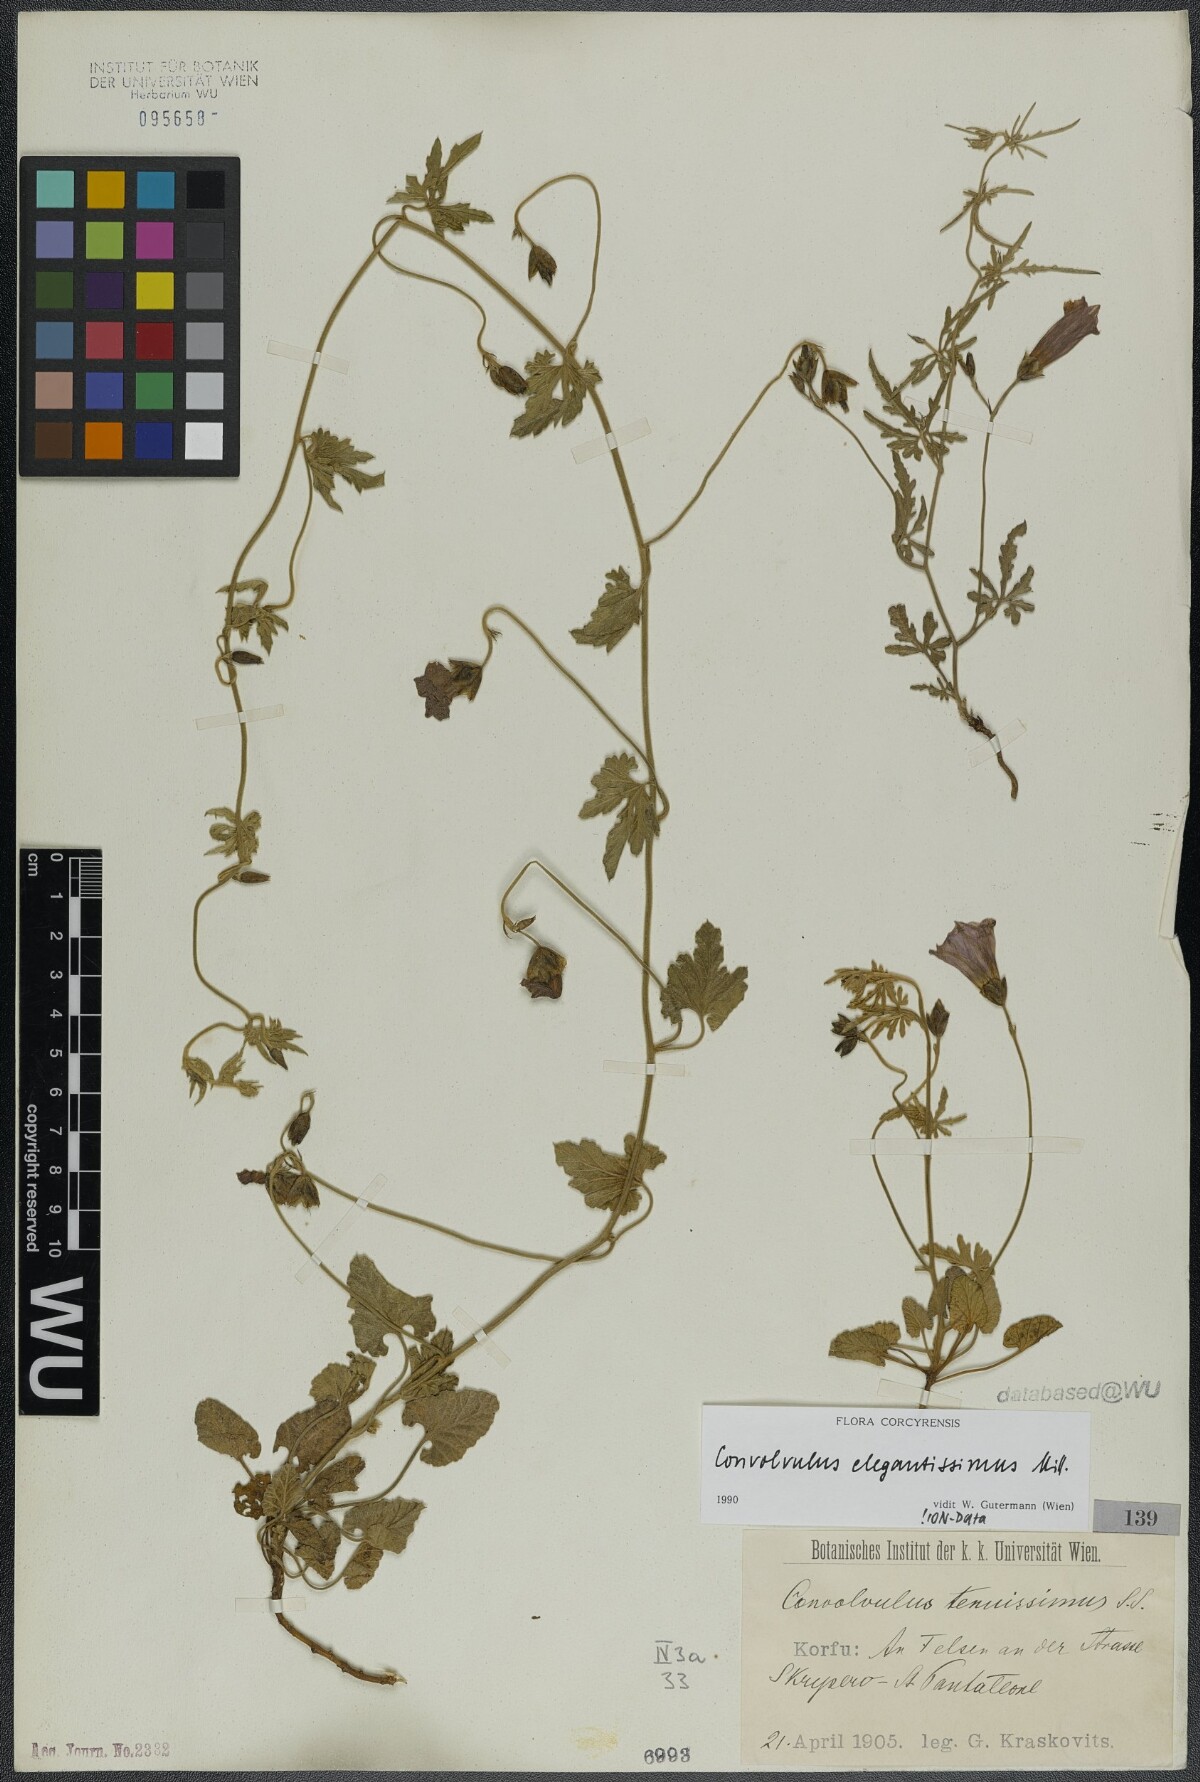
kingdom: Plantae
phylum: Tracheophyta
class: Magnoliopsida
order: Solanales
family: Convolvulaceae
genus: Convolvulus
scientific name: Convolvulus elegantissimus
